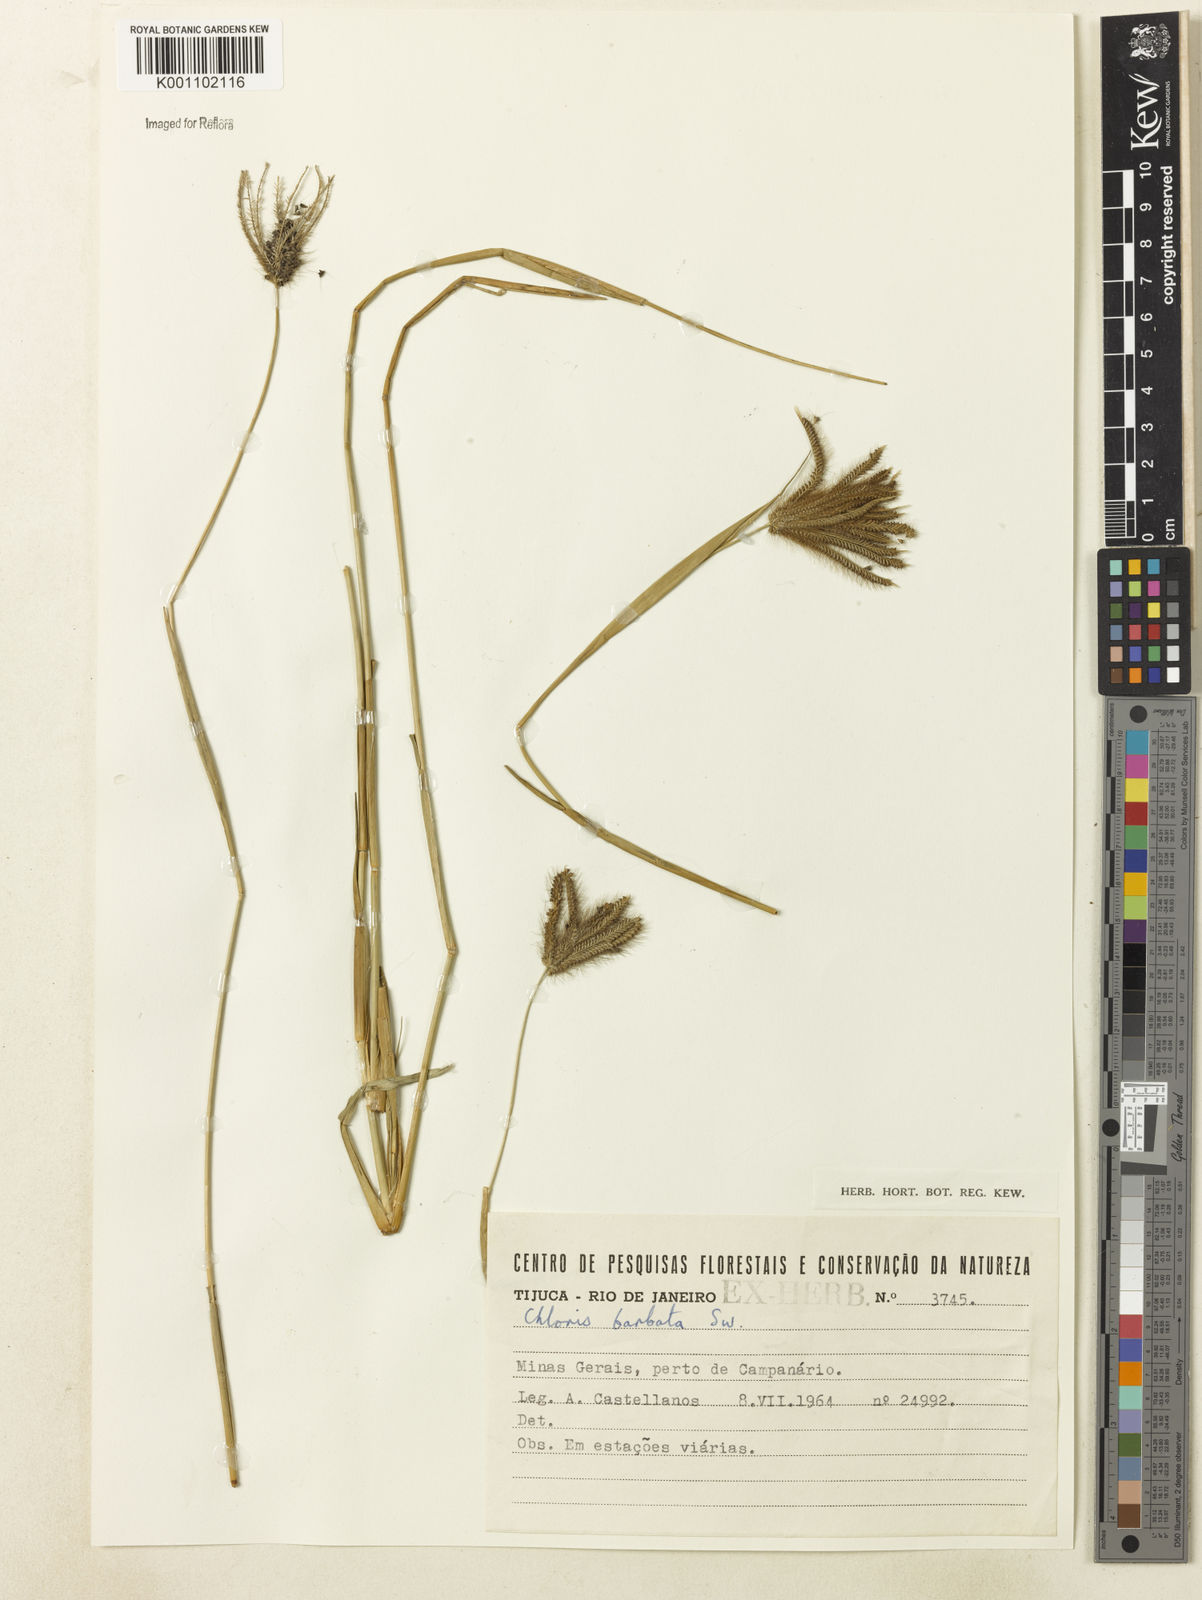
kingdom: Plantae
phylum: Tracheophyta
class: Liliopsida
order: Poales
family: Poaceae
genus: Chloris
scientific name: Chloris barbata
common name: Swollen fingergrass
